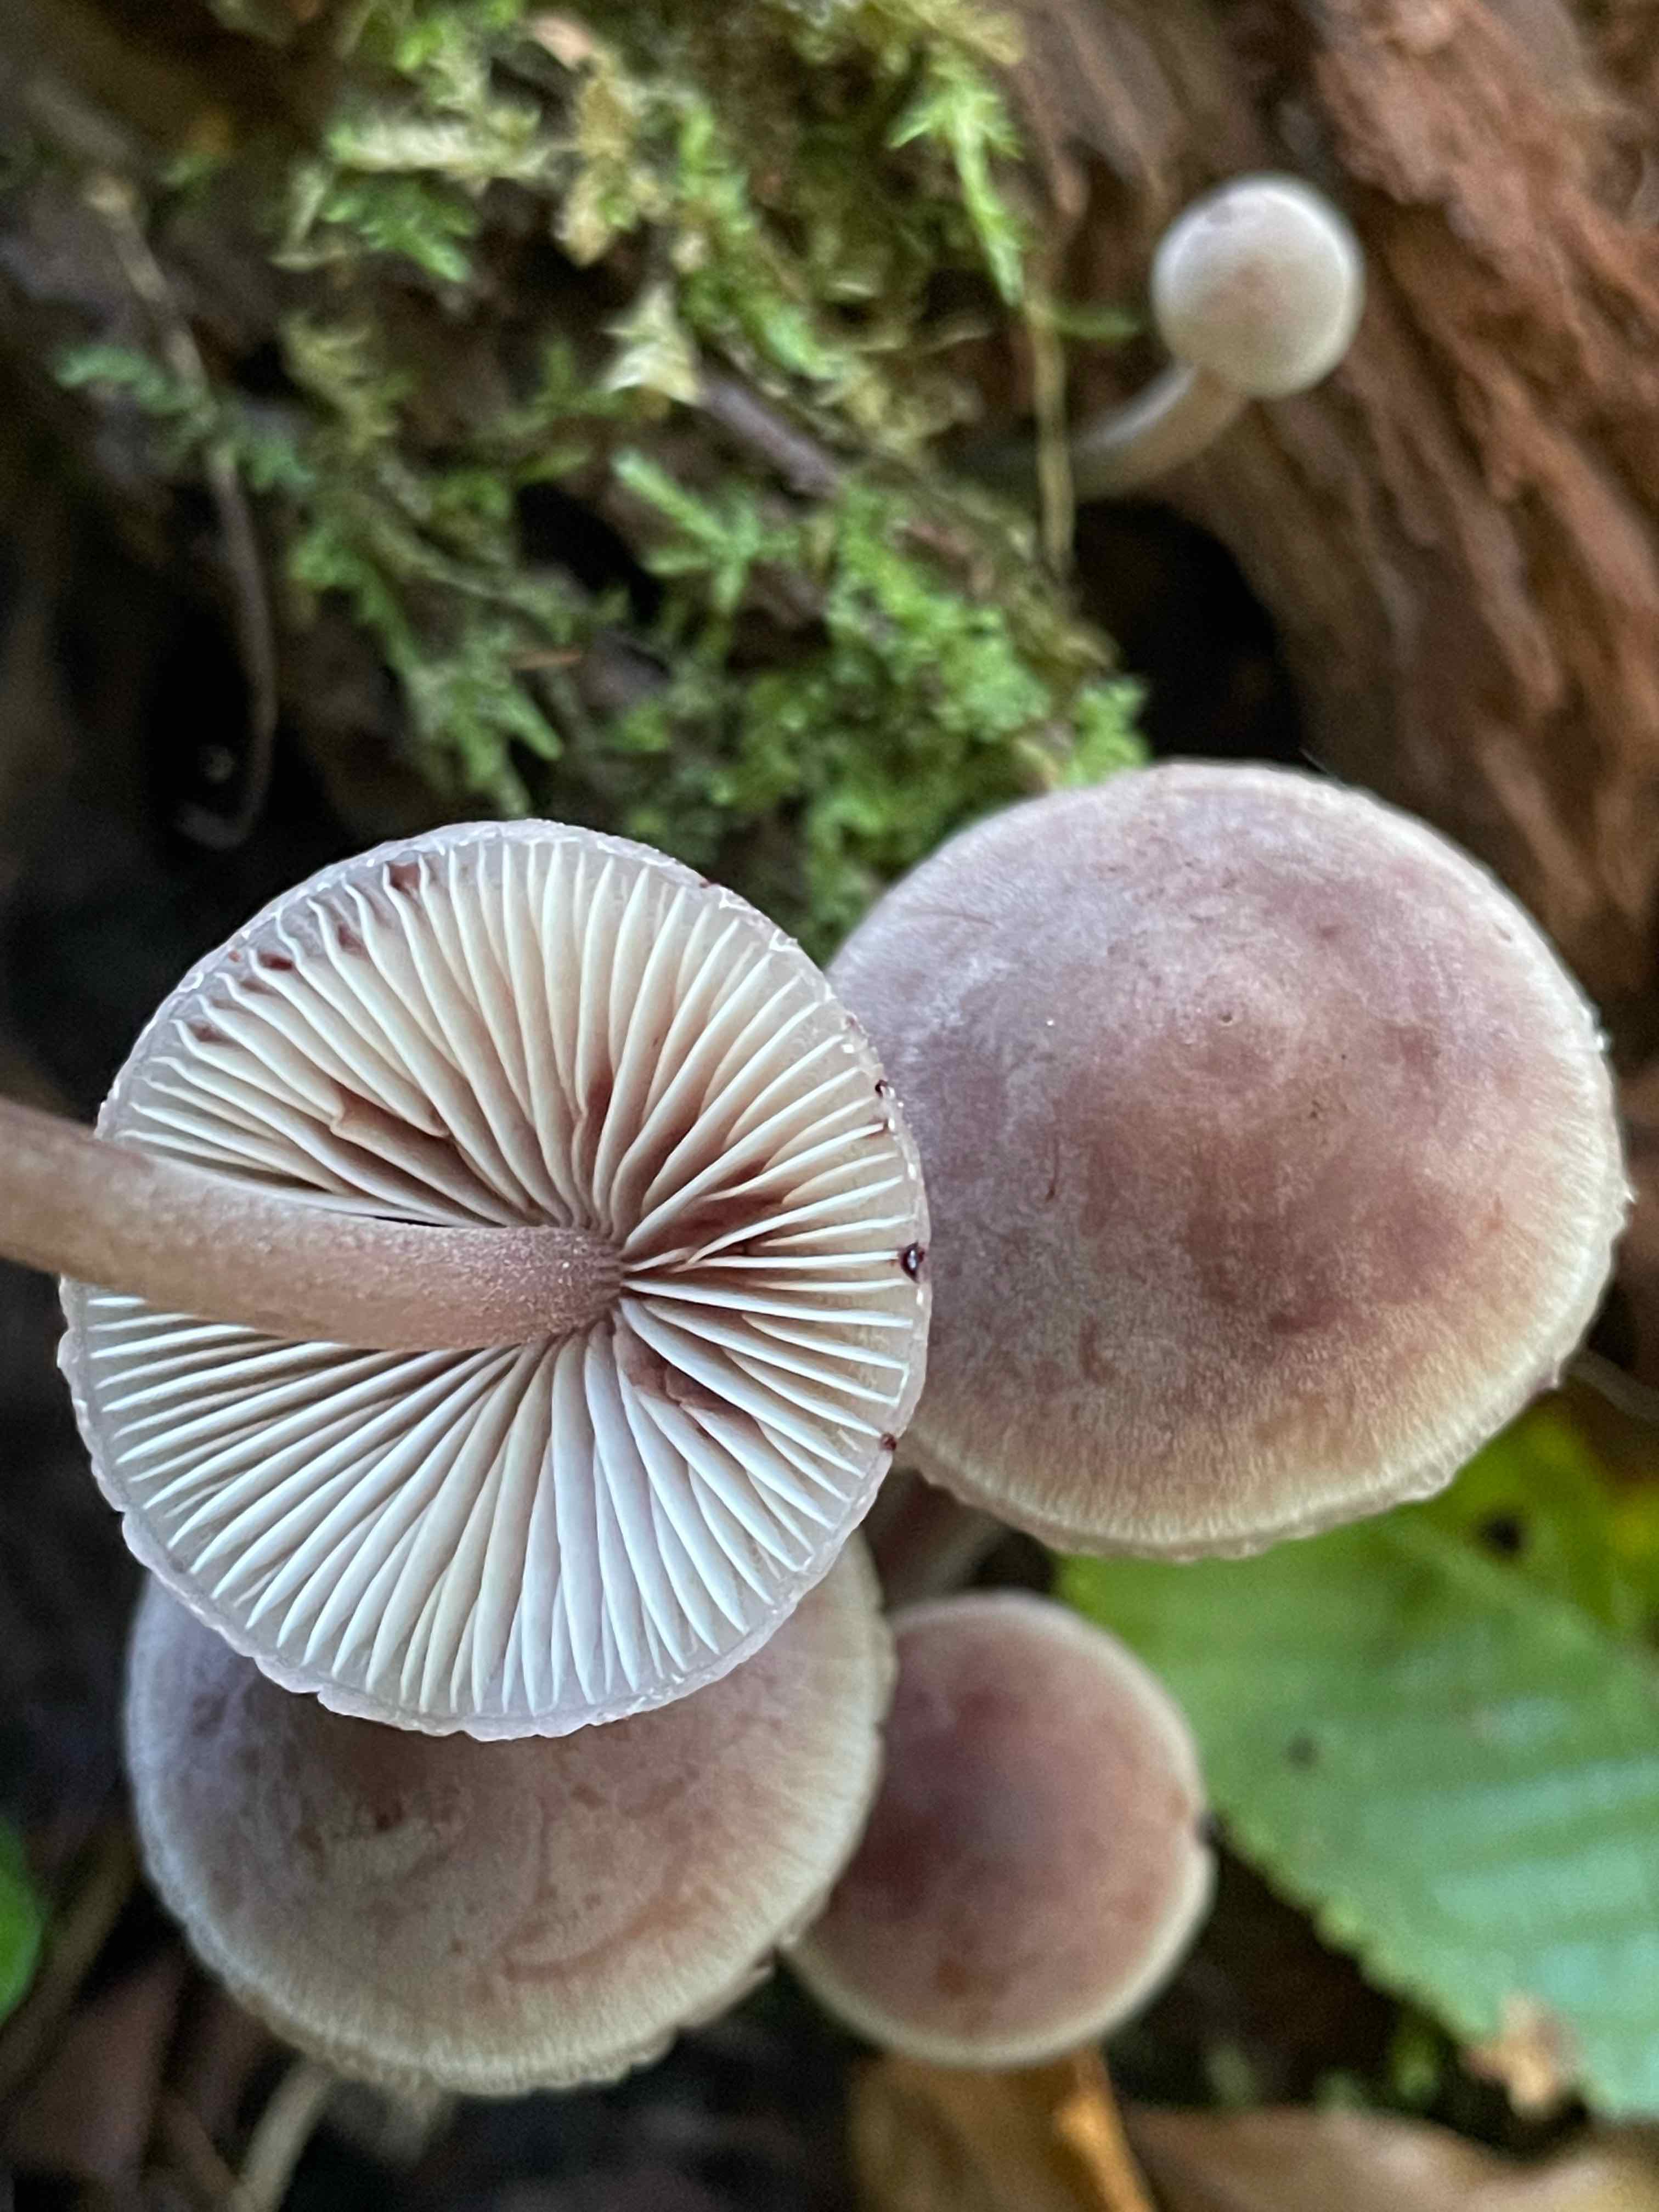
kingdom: Fungi
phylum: Basidiomycota
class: Agaricomycetes
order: Agaricales
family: Mycenaceae
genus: Mycena
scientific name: Mycena haematopus
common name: blødende huesvamp
